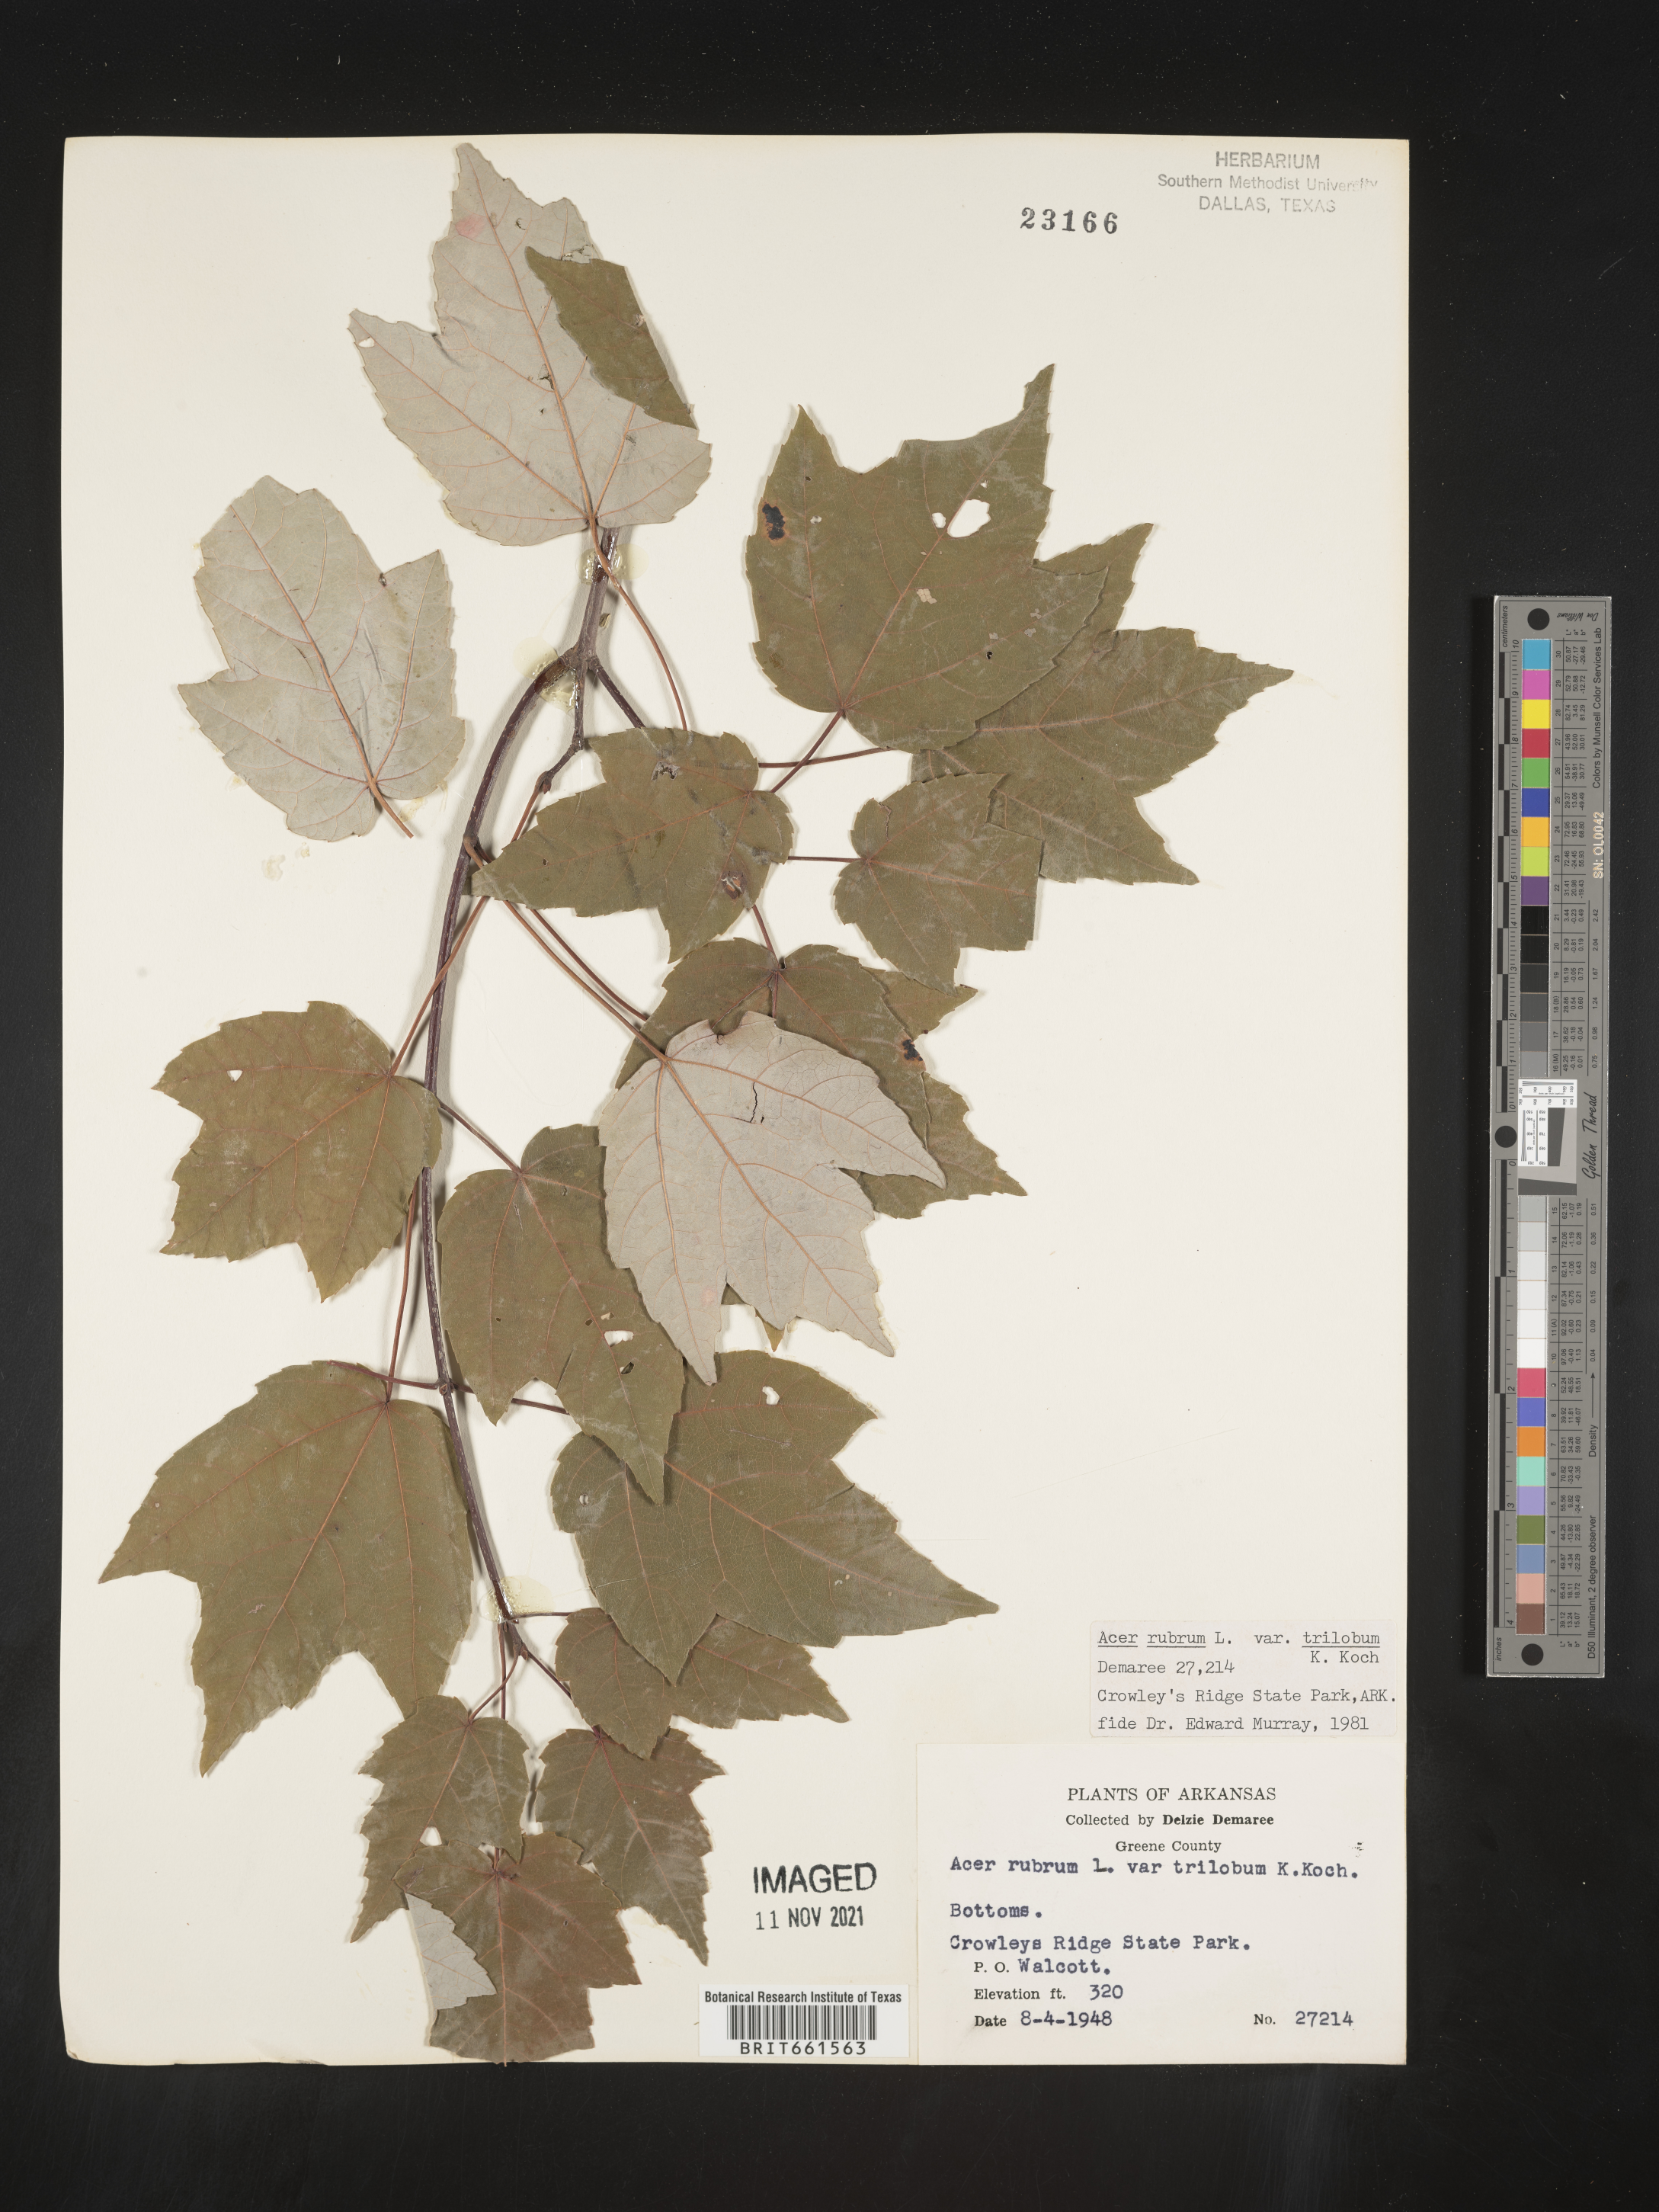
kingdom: Plantae
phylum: Tracheophyta
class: Magnoliopsida
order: Sapindales
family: Sapindaceae
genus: Acer
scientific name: Acer rubrum
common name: Red maple
